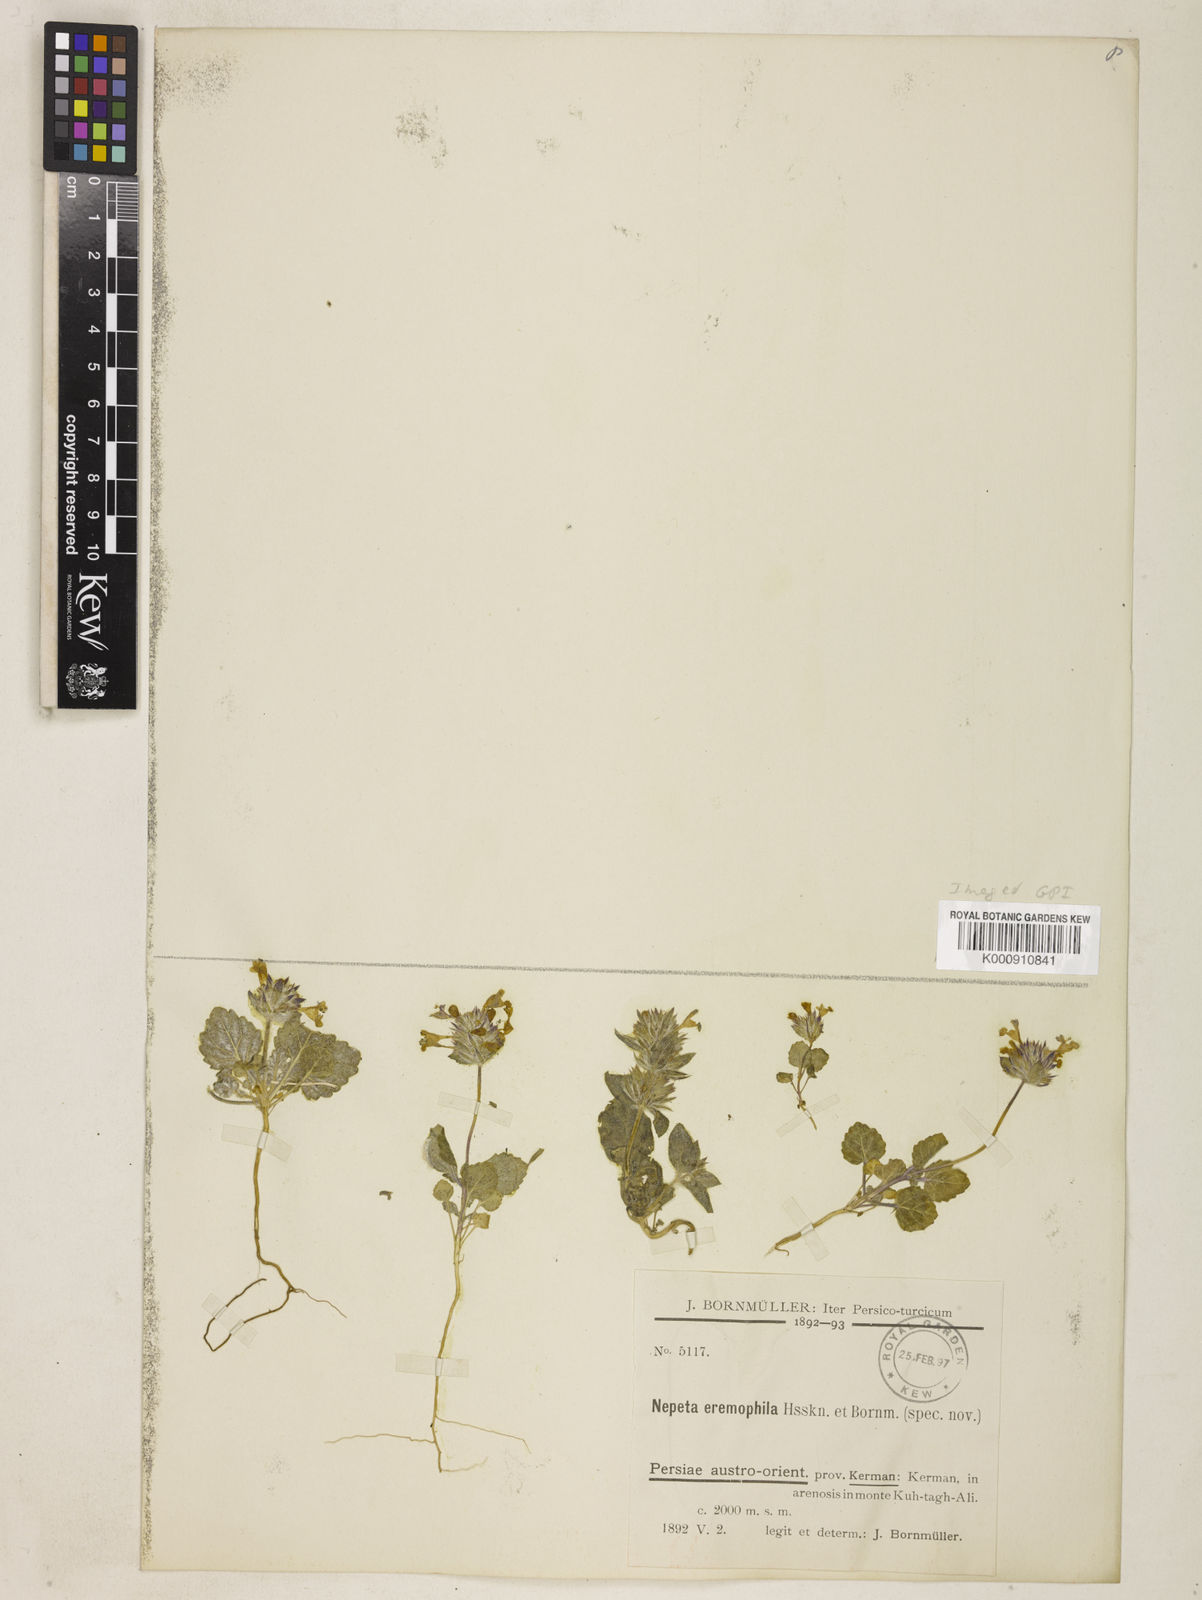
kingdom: Plantae
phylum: Tracheophyta
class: Magnoliopsida
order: Lamiales
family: Lamiaceae
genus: Nepeta
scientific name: Nepeta eremophila
